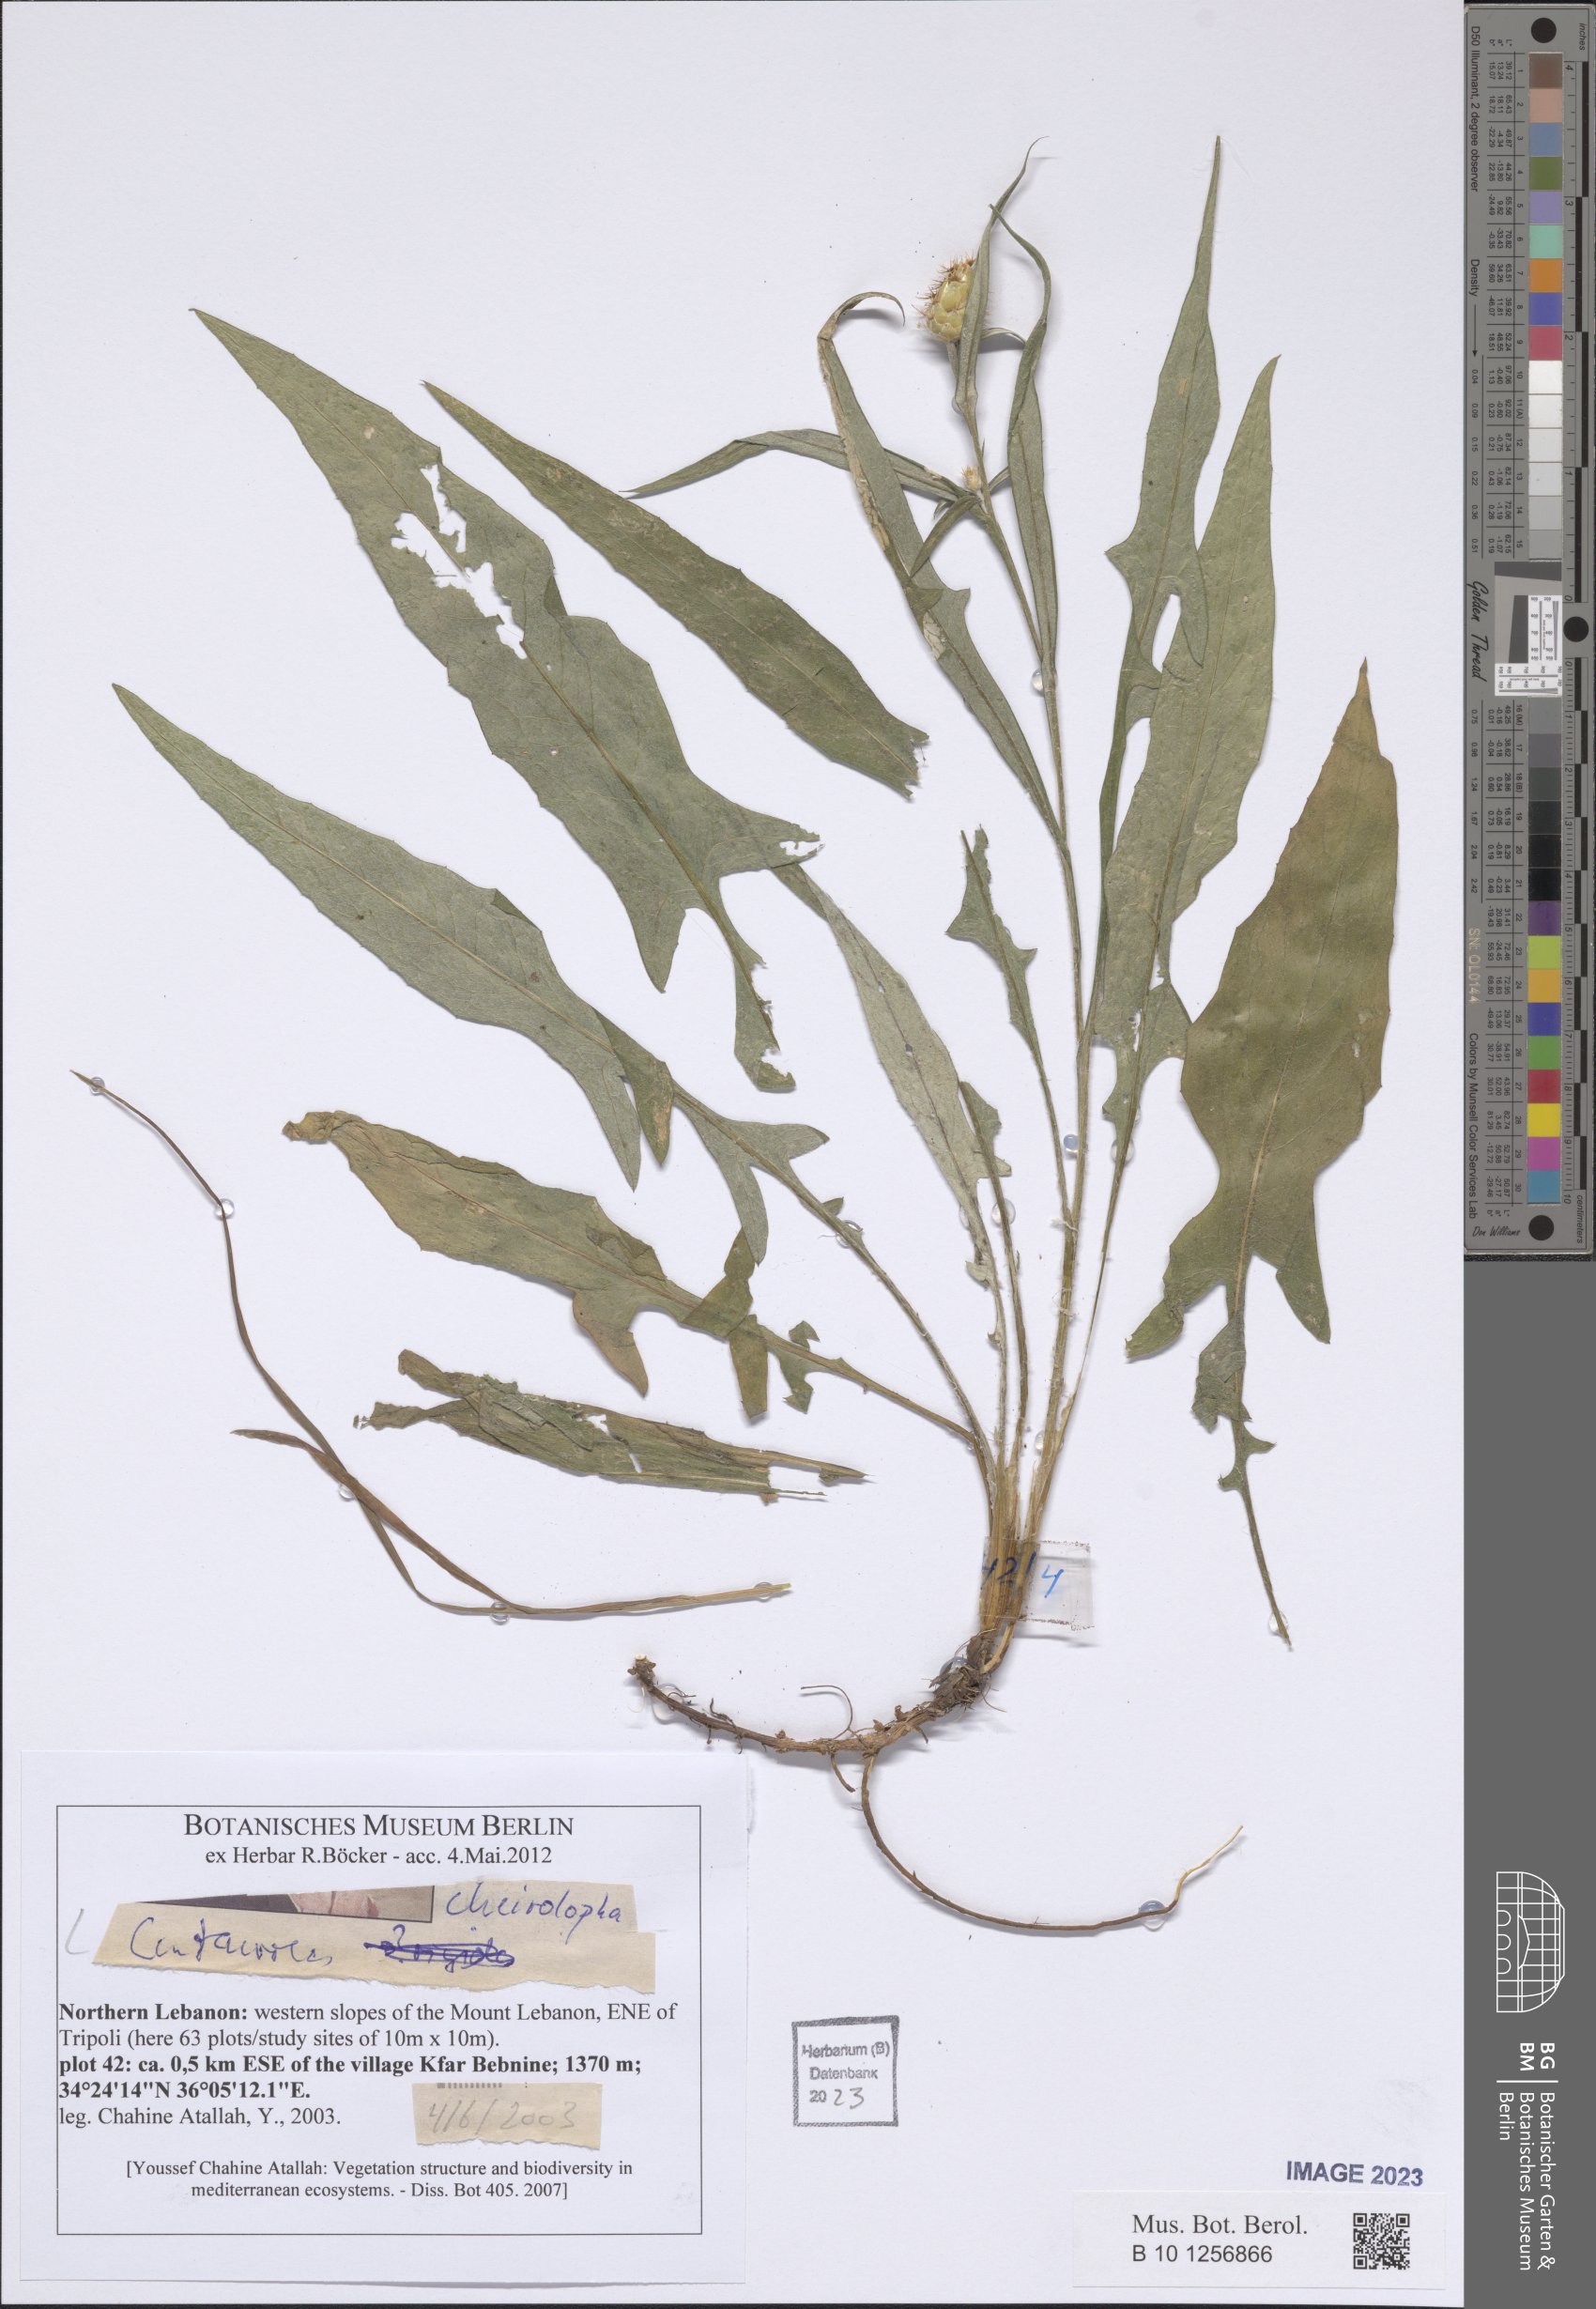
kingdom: Plantae
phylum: Tracheophyta
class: Magnoliopsida
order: Asterales
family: Asteraceae
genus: Centaurea
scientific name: Centaurea cheirolopha
